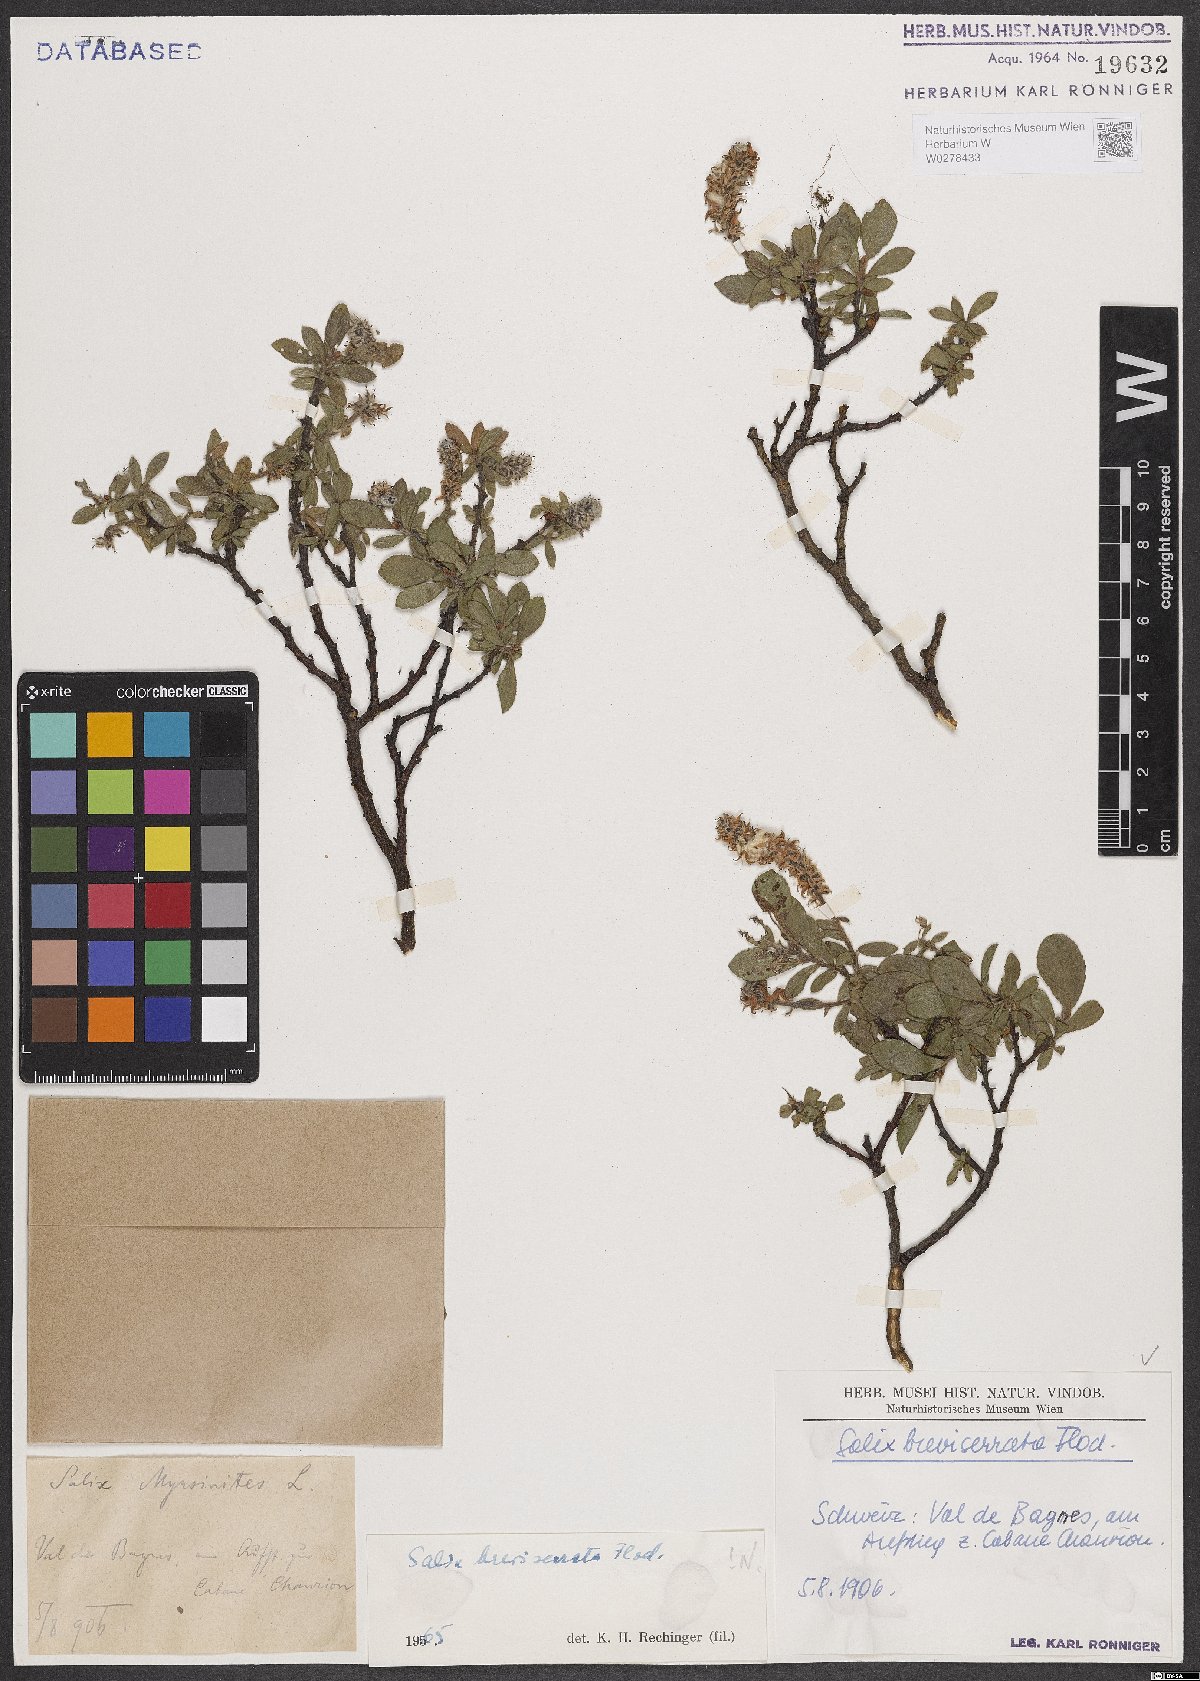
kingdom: Plantae
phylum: Tracheophyta
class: Magnoliopsida
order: Malpighiales
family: Salicaceae
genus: Salix
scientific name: Salix breviserrata
